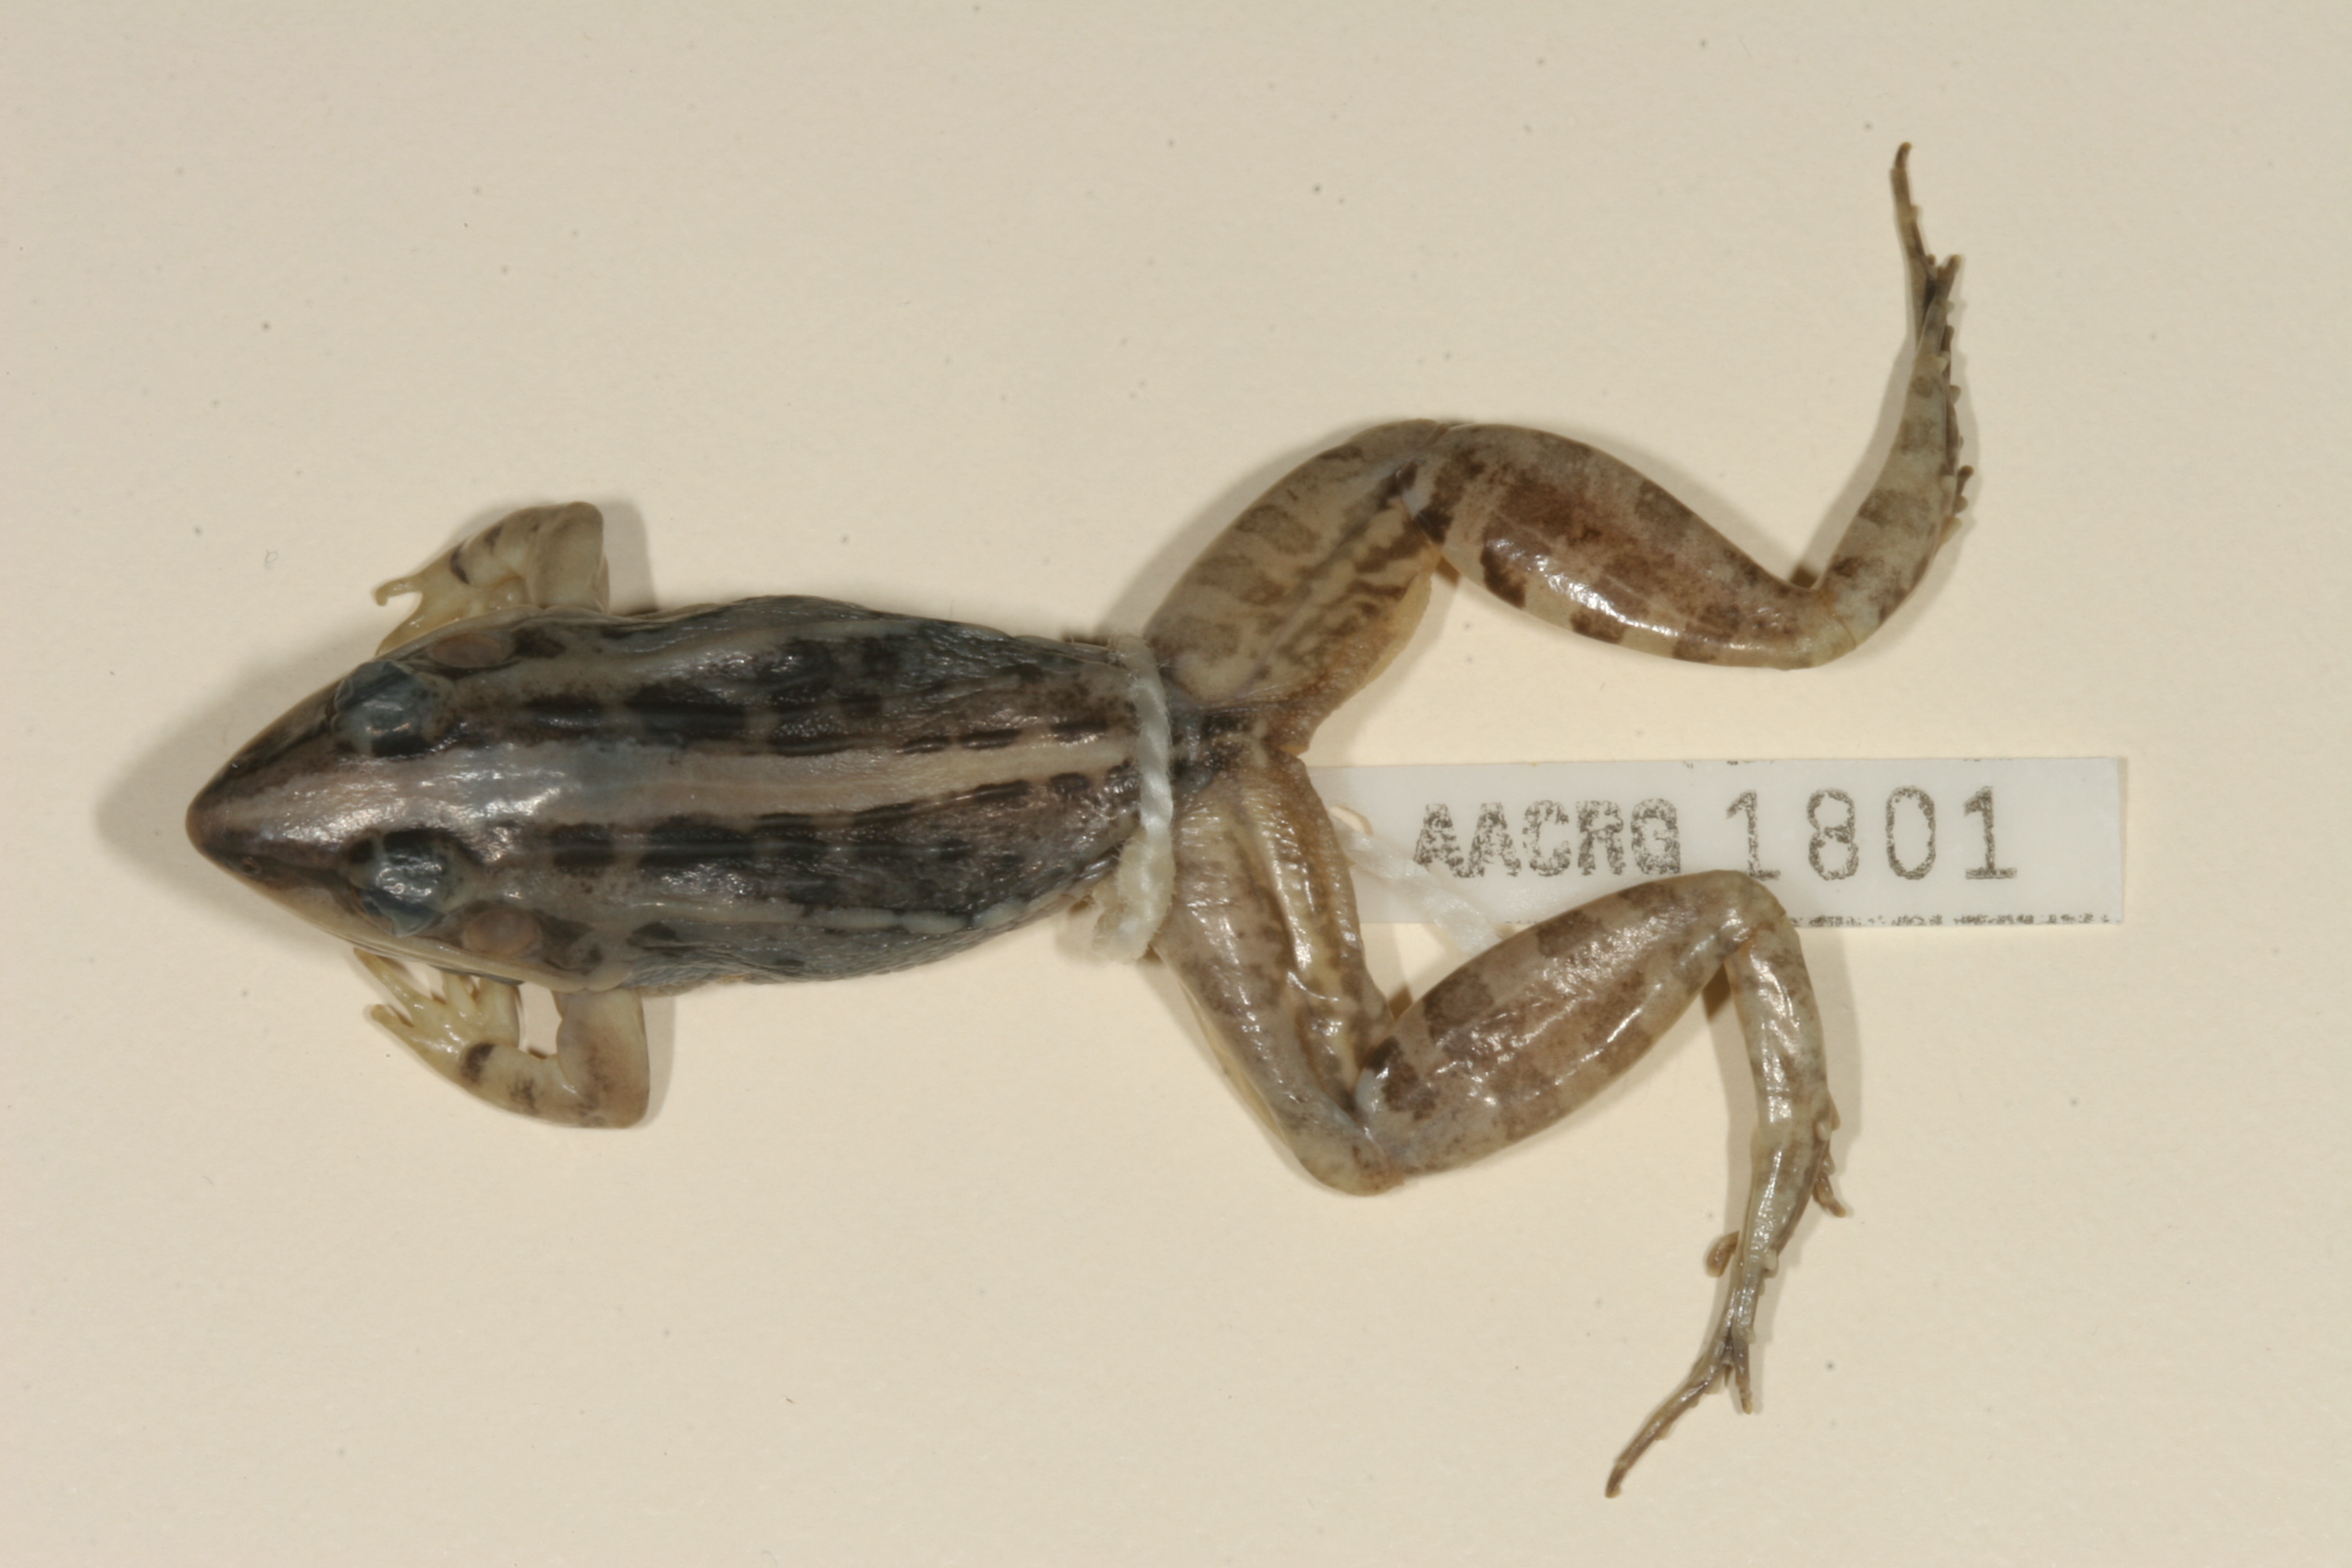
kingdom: Animalia
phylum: Chordata
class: Amphibia
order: Anura
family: Ptychadenidae
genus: Ptychadena
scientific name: Ptychadena mossambica
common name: Mozambique ridged frog
